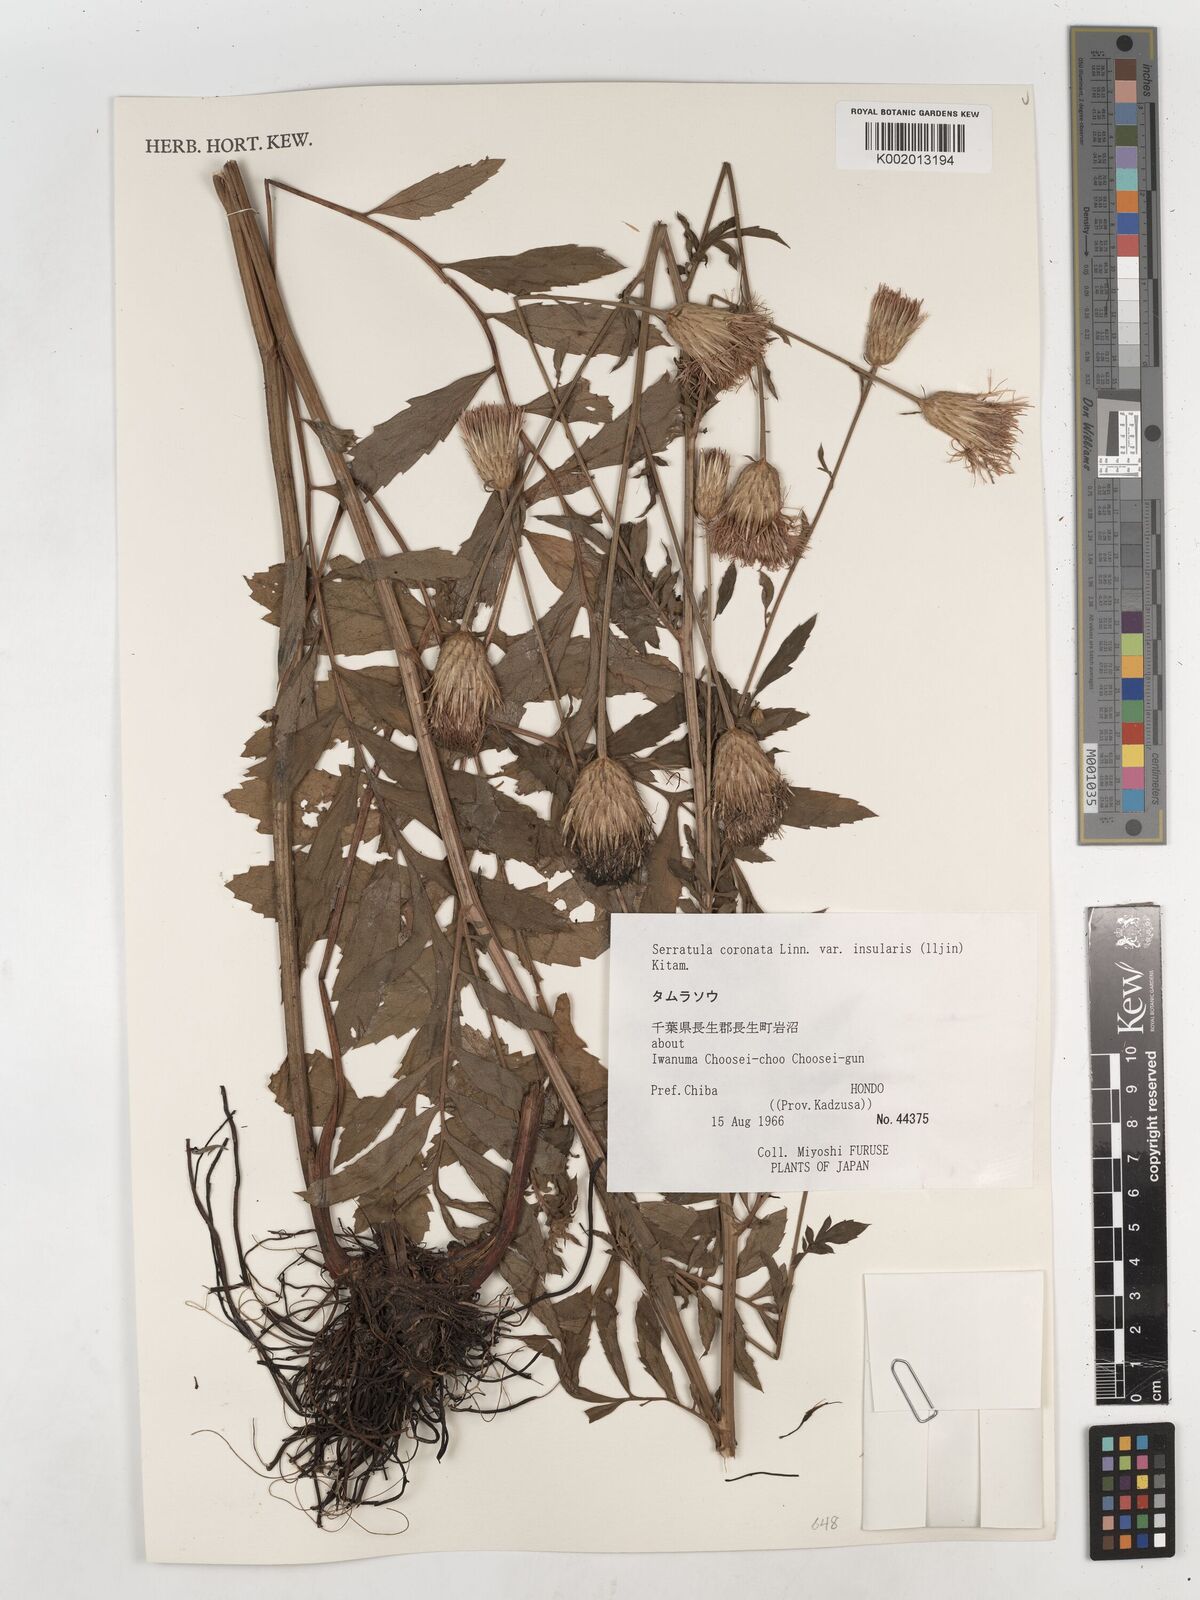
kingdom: Plantae
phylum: Tracheophyta
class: Magnoliopsida
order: Asterales
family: Asteraceae
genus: Serratula
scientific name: Serratula coronata
